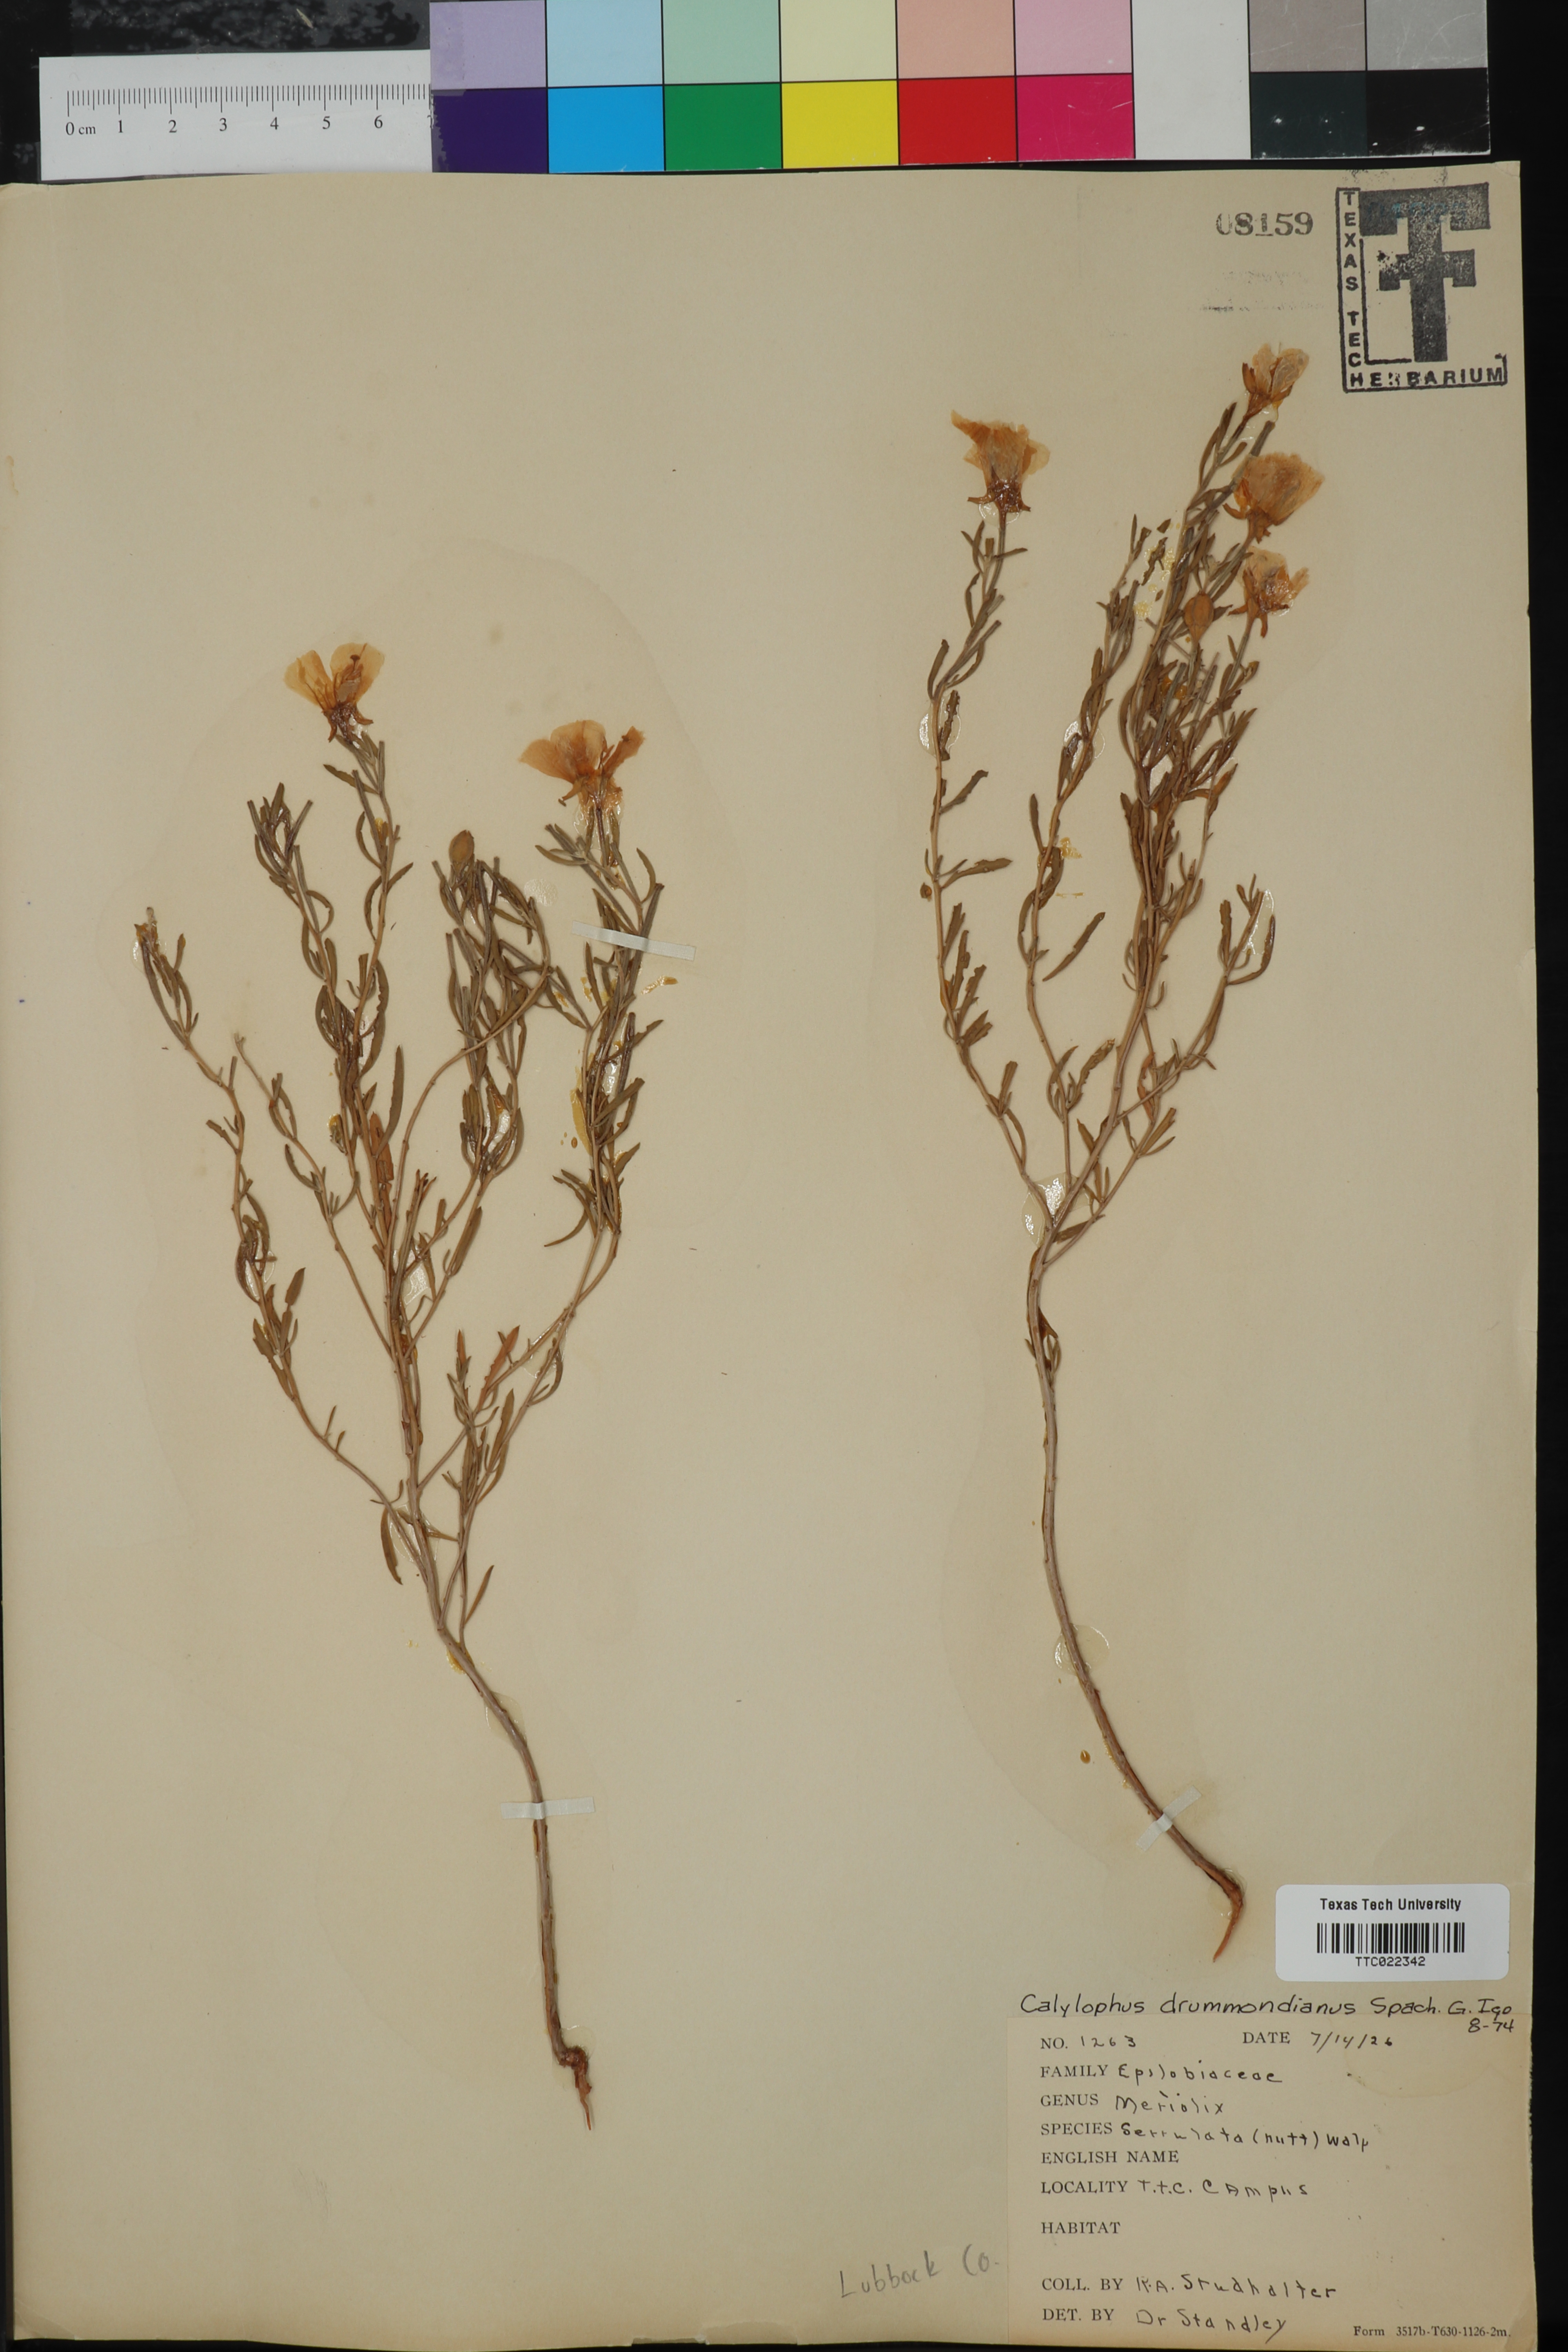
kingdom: Plantae
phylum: Tracheophyta
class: Magnoliopsida
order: Myrtales
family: Onagraceae
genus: Oenothera
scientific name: Oenothera serrulata
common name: Half-shrub calylophus
